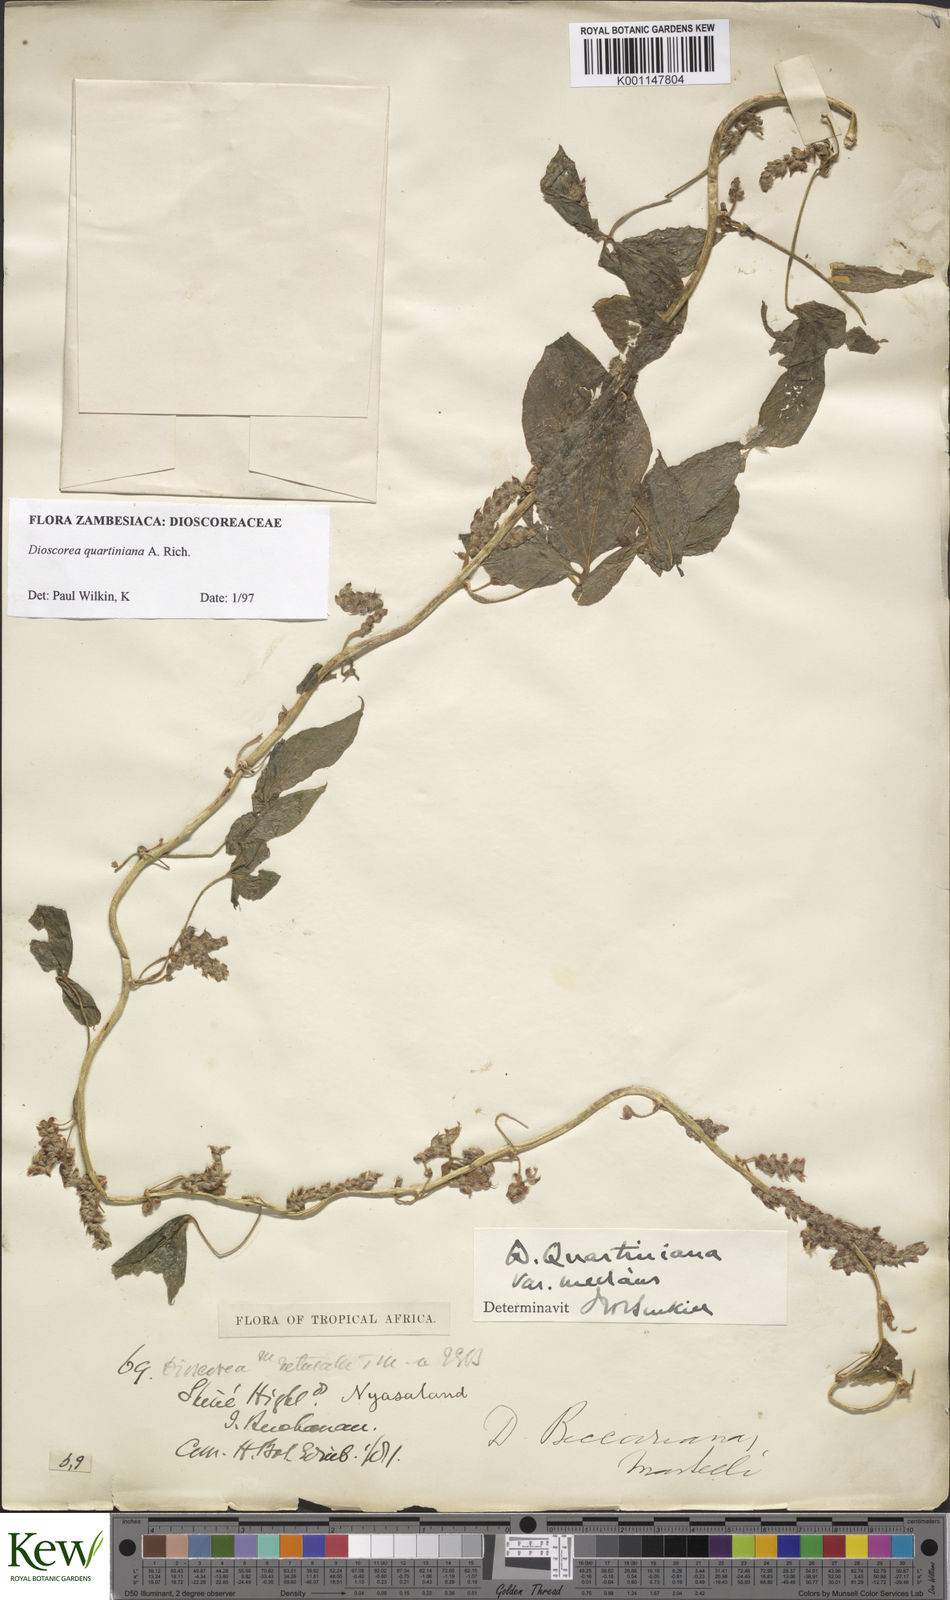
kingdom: Plantae
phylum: Tracheophyta
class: Liliopsida
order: Dioscoreales
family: Dioscoreaceae
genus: Dioscorea
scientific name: Dioscorea quartiniana
